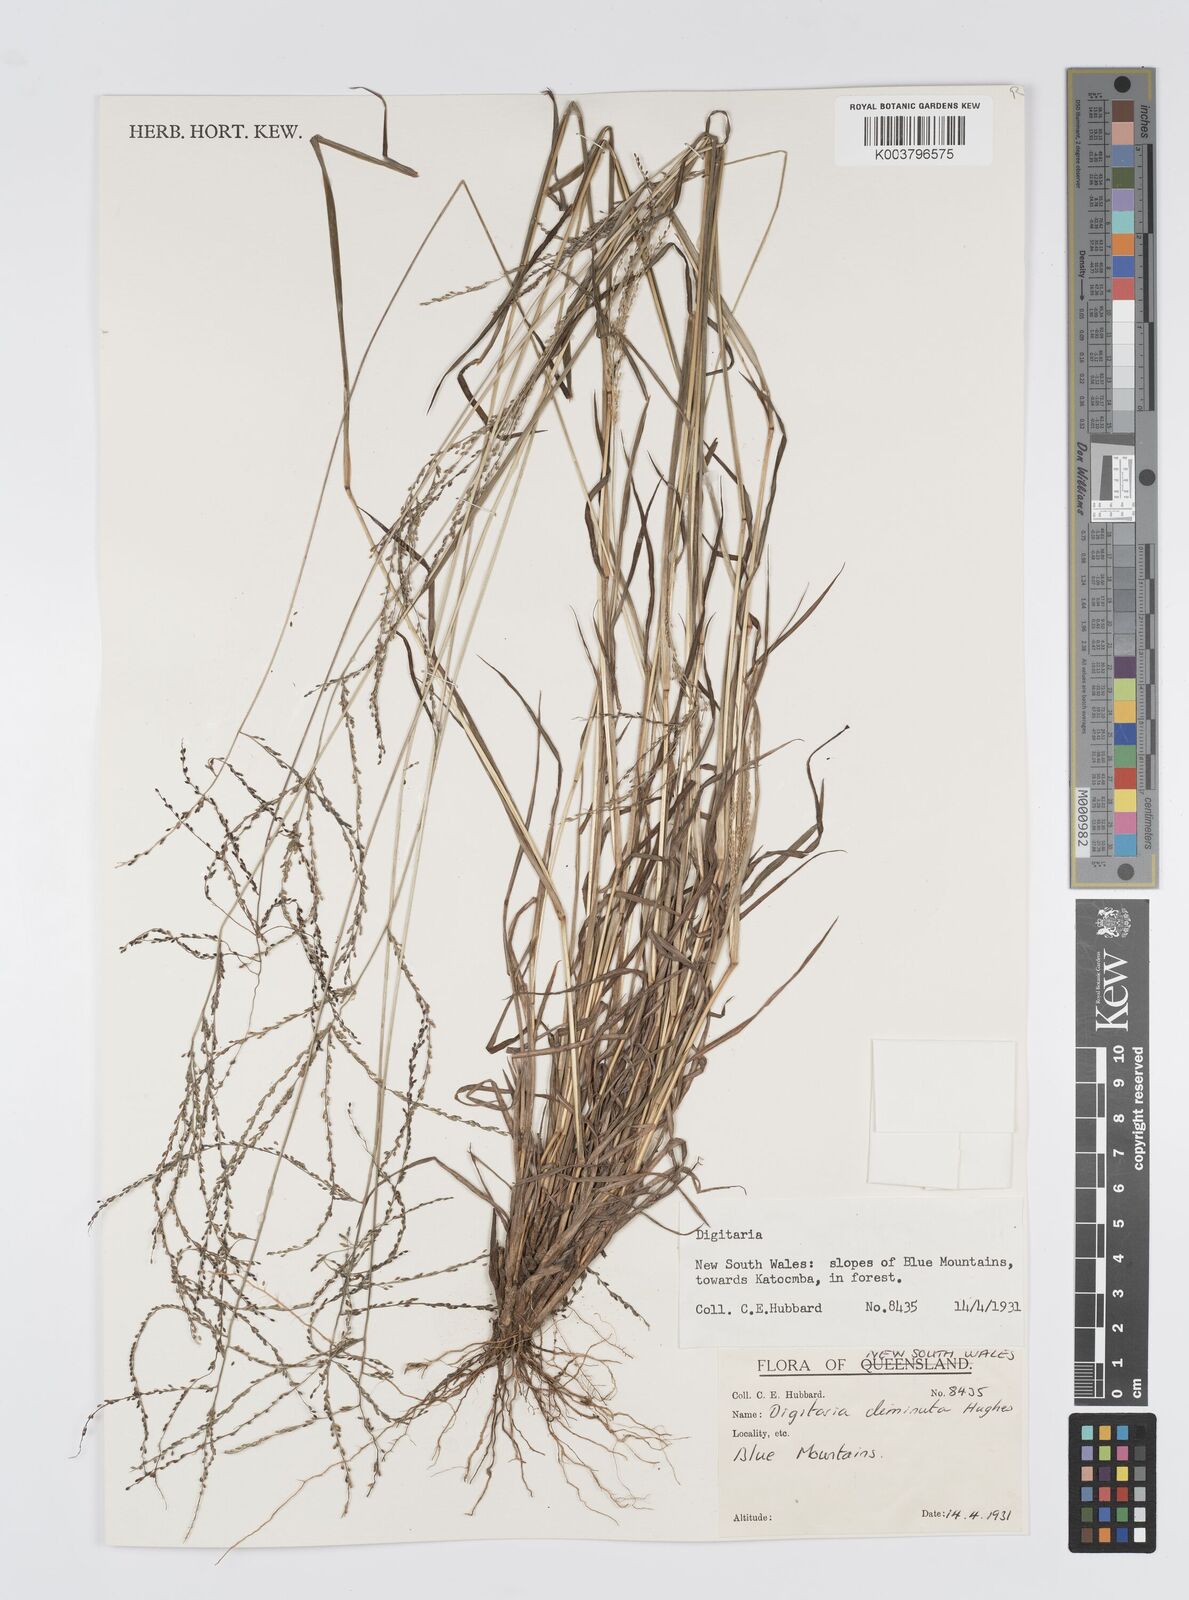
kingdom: Plantae
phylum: Tracheophyta
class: Liliopsida
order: Poales
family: Poaceae
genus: Digitaria
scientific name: Digitaria breviglumis
